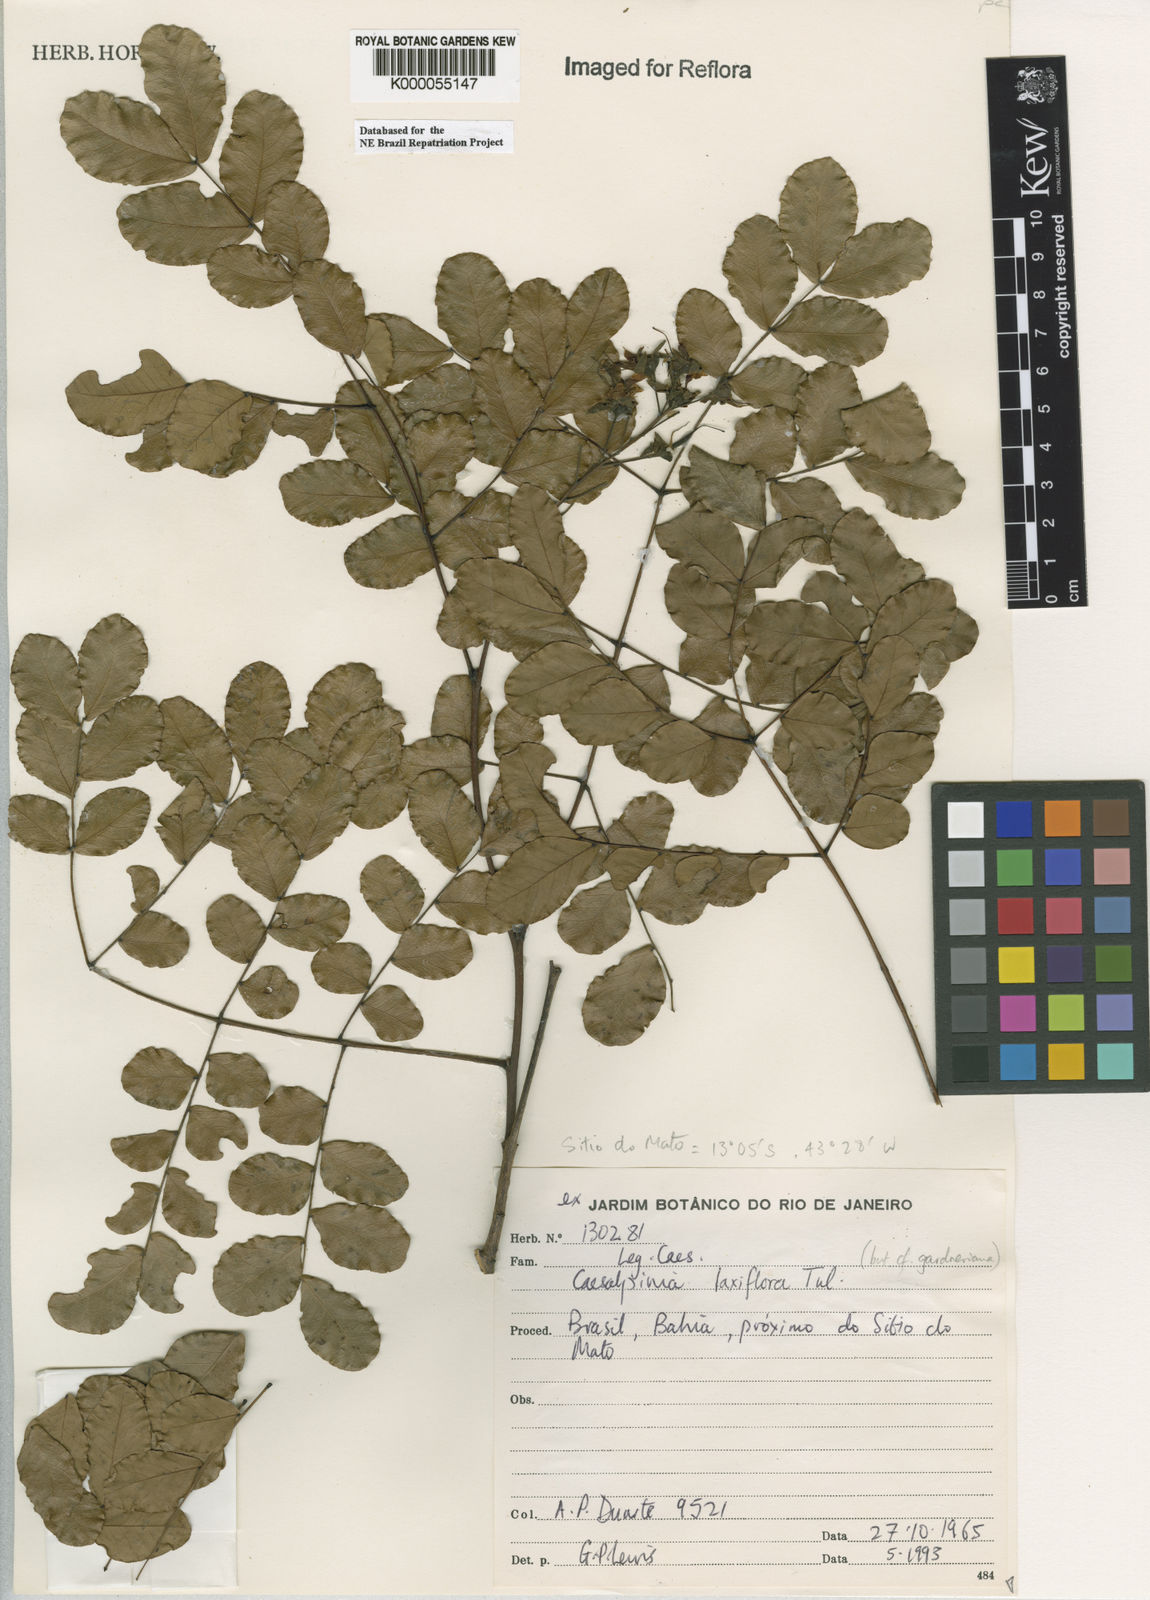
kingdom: Plantae
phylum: Tracheophyta
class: Magnoliopsida
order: Fabales
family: Fabaceae
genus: Cenostigma
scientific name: Cenostigma laxiflorum
